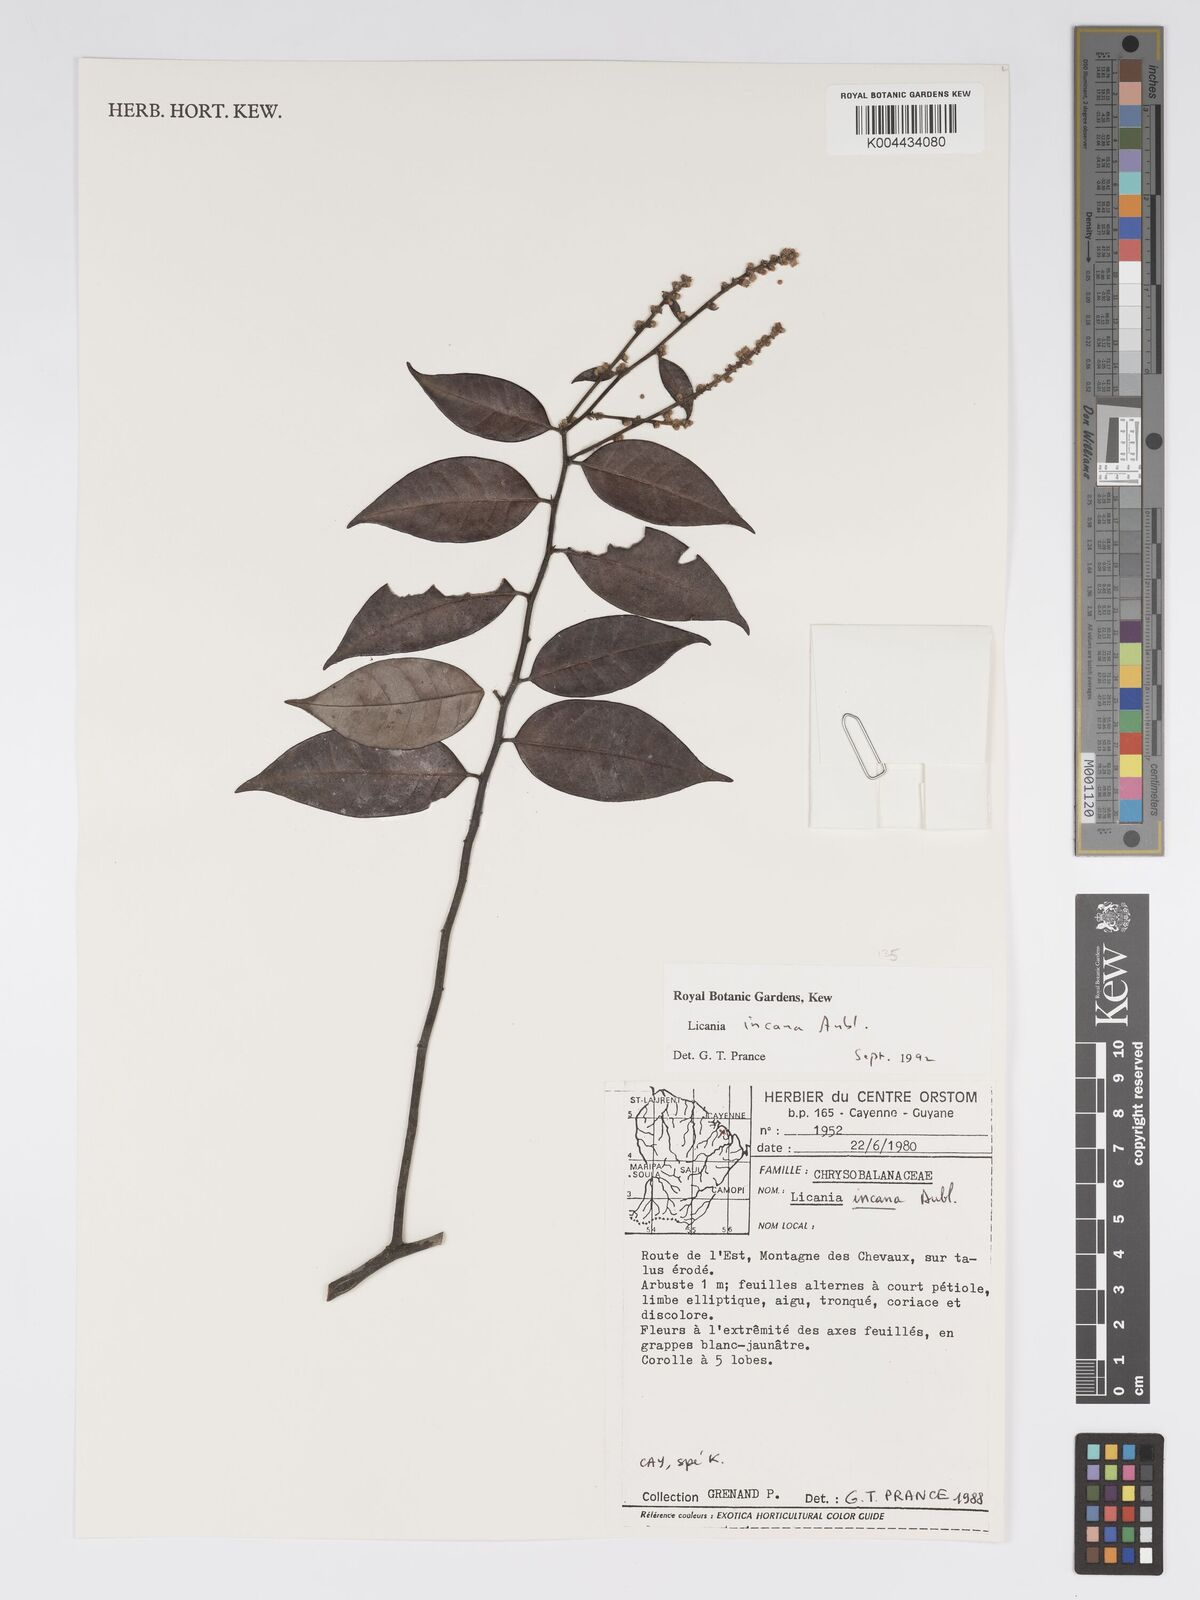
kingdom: Plantae
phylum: Tracheophyta
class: Magnoliopsida
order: Malpighiales
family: Chrysobalanaceae
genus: Licania
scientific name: Licania incana
